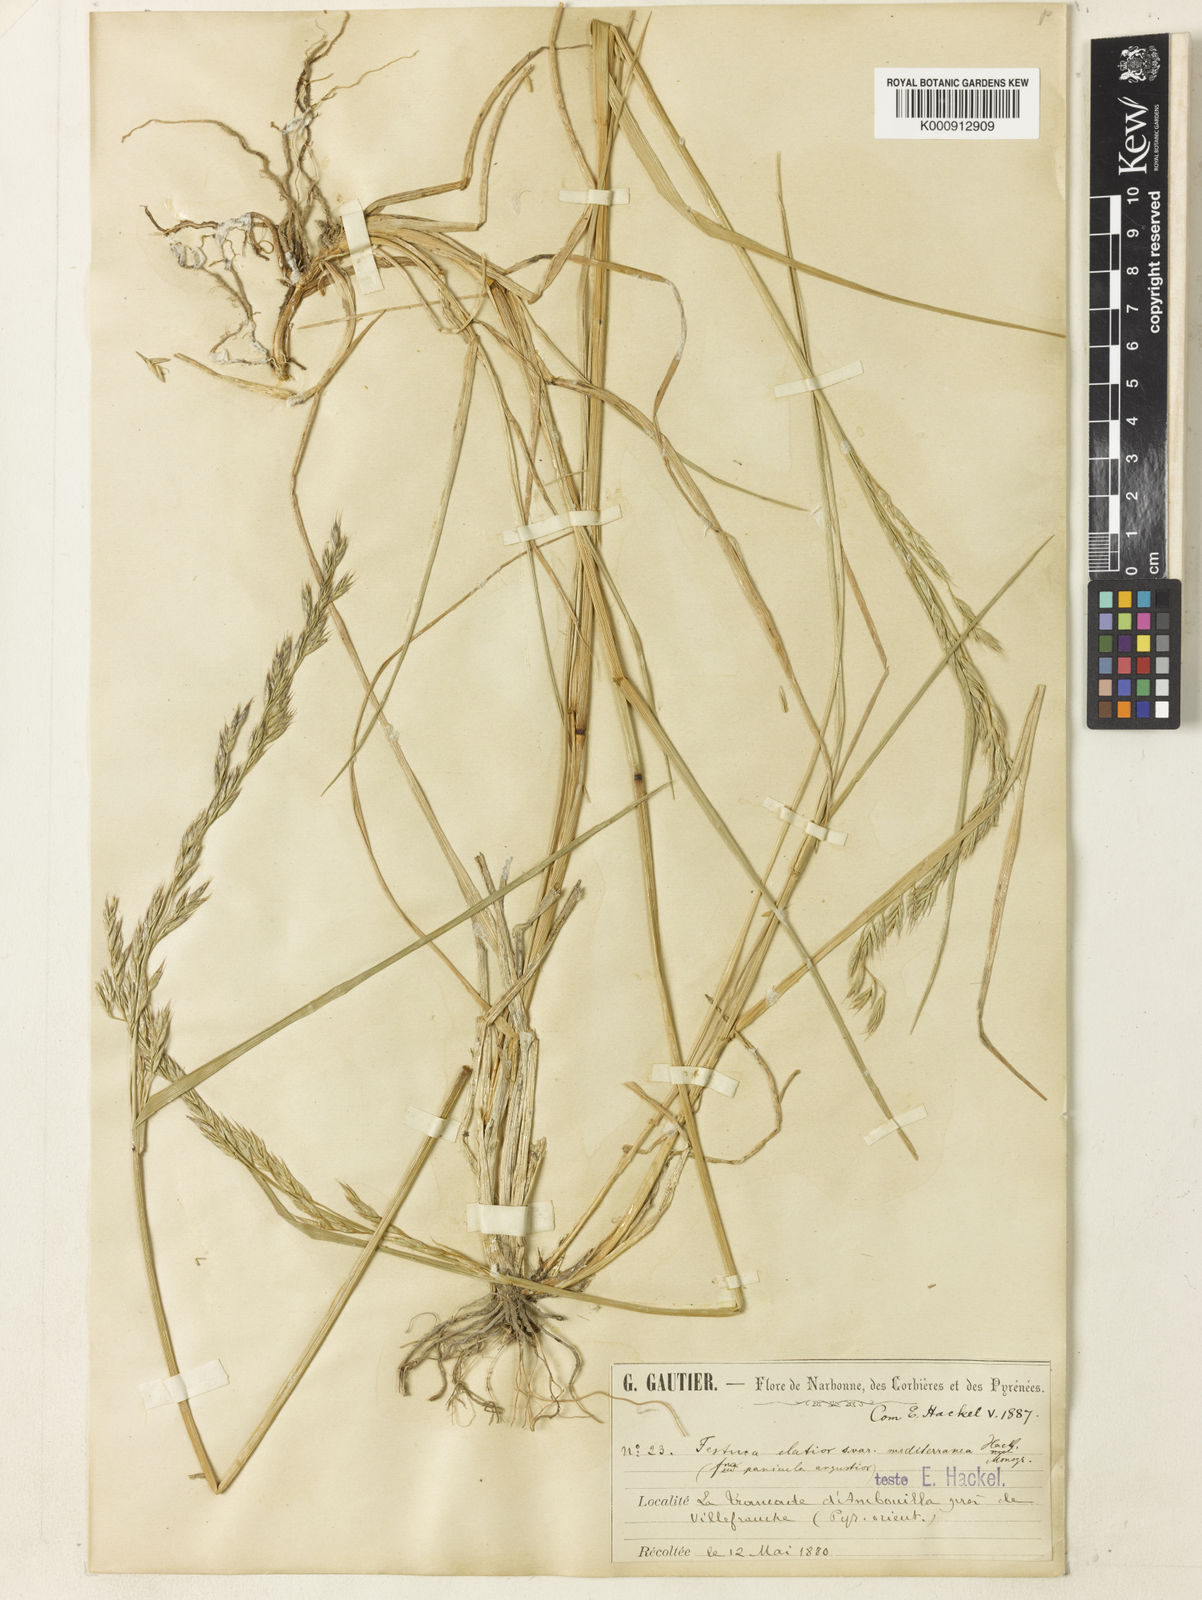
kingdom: Plantae
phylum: Tracheophyta
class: Liliopsida
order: Poales
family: Poaceae
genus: Lolium
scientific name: Lolium arundinaceum
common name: Reed fescue
